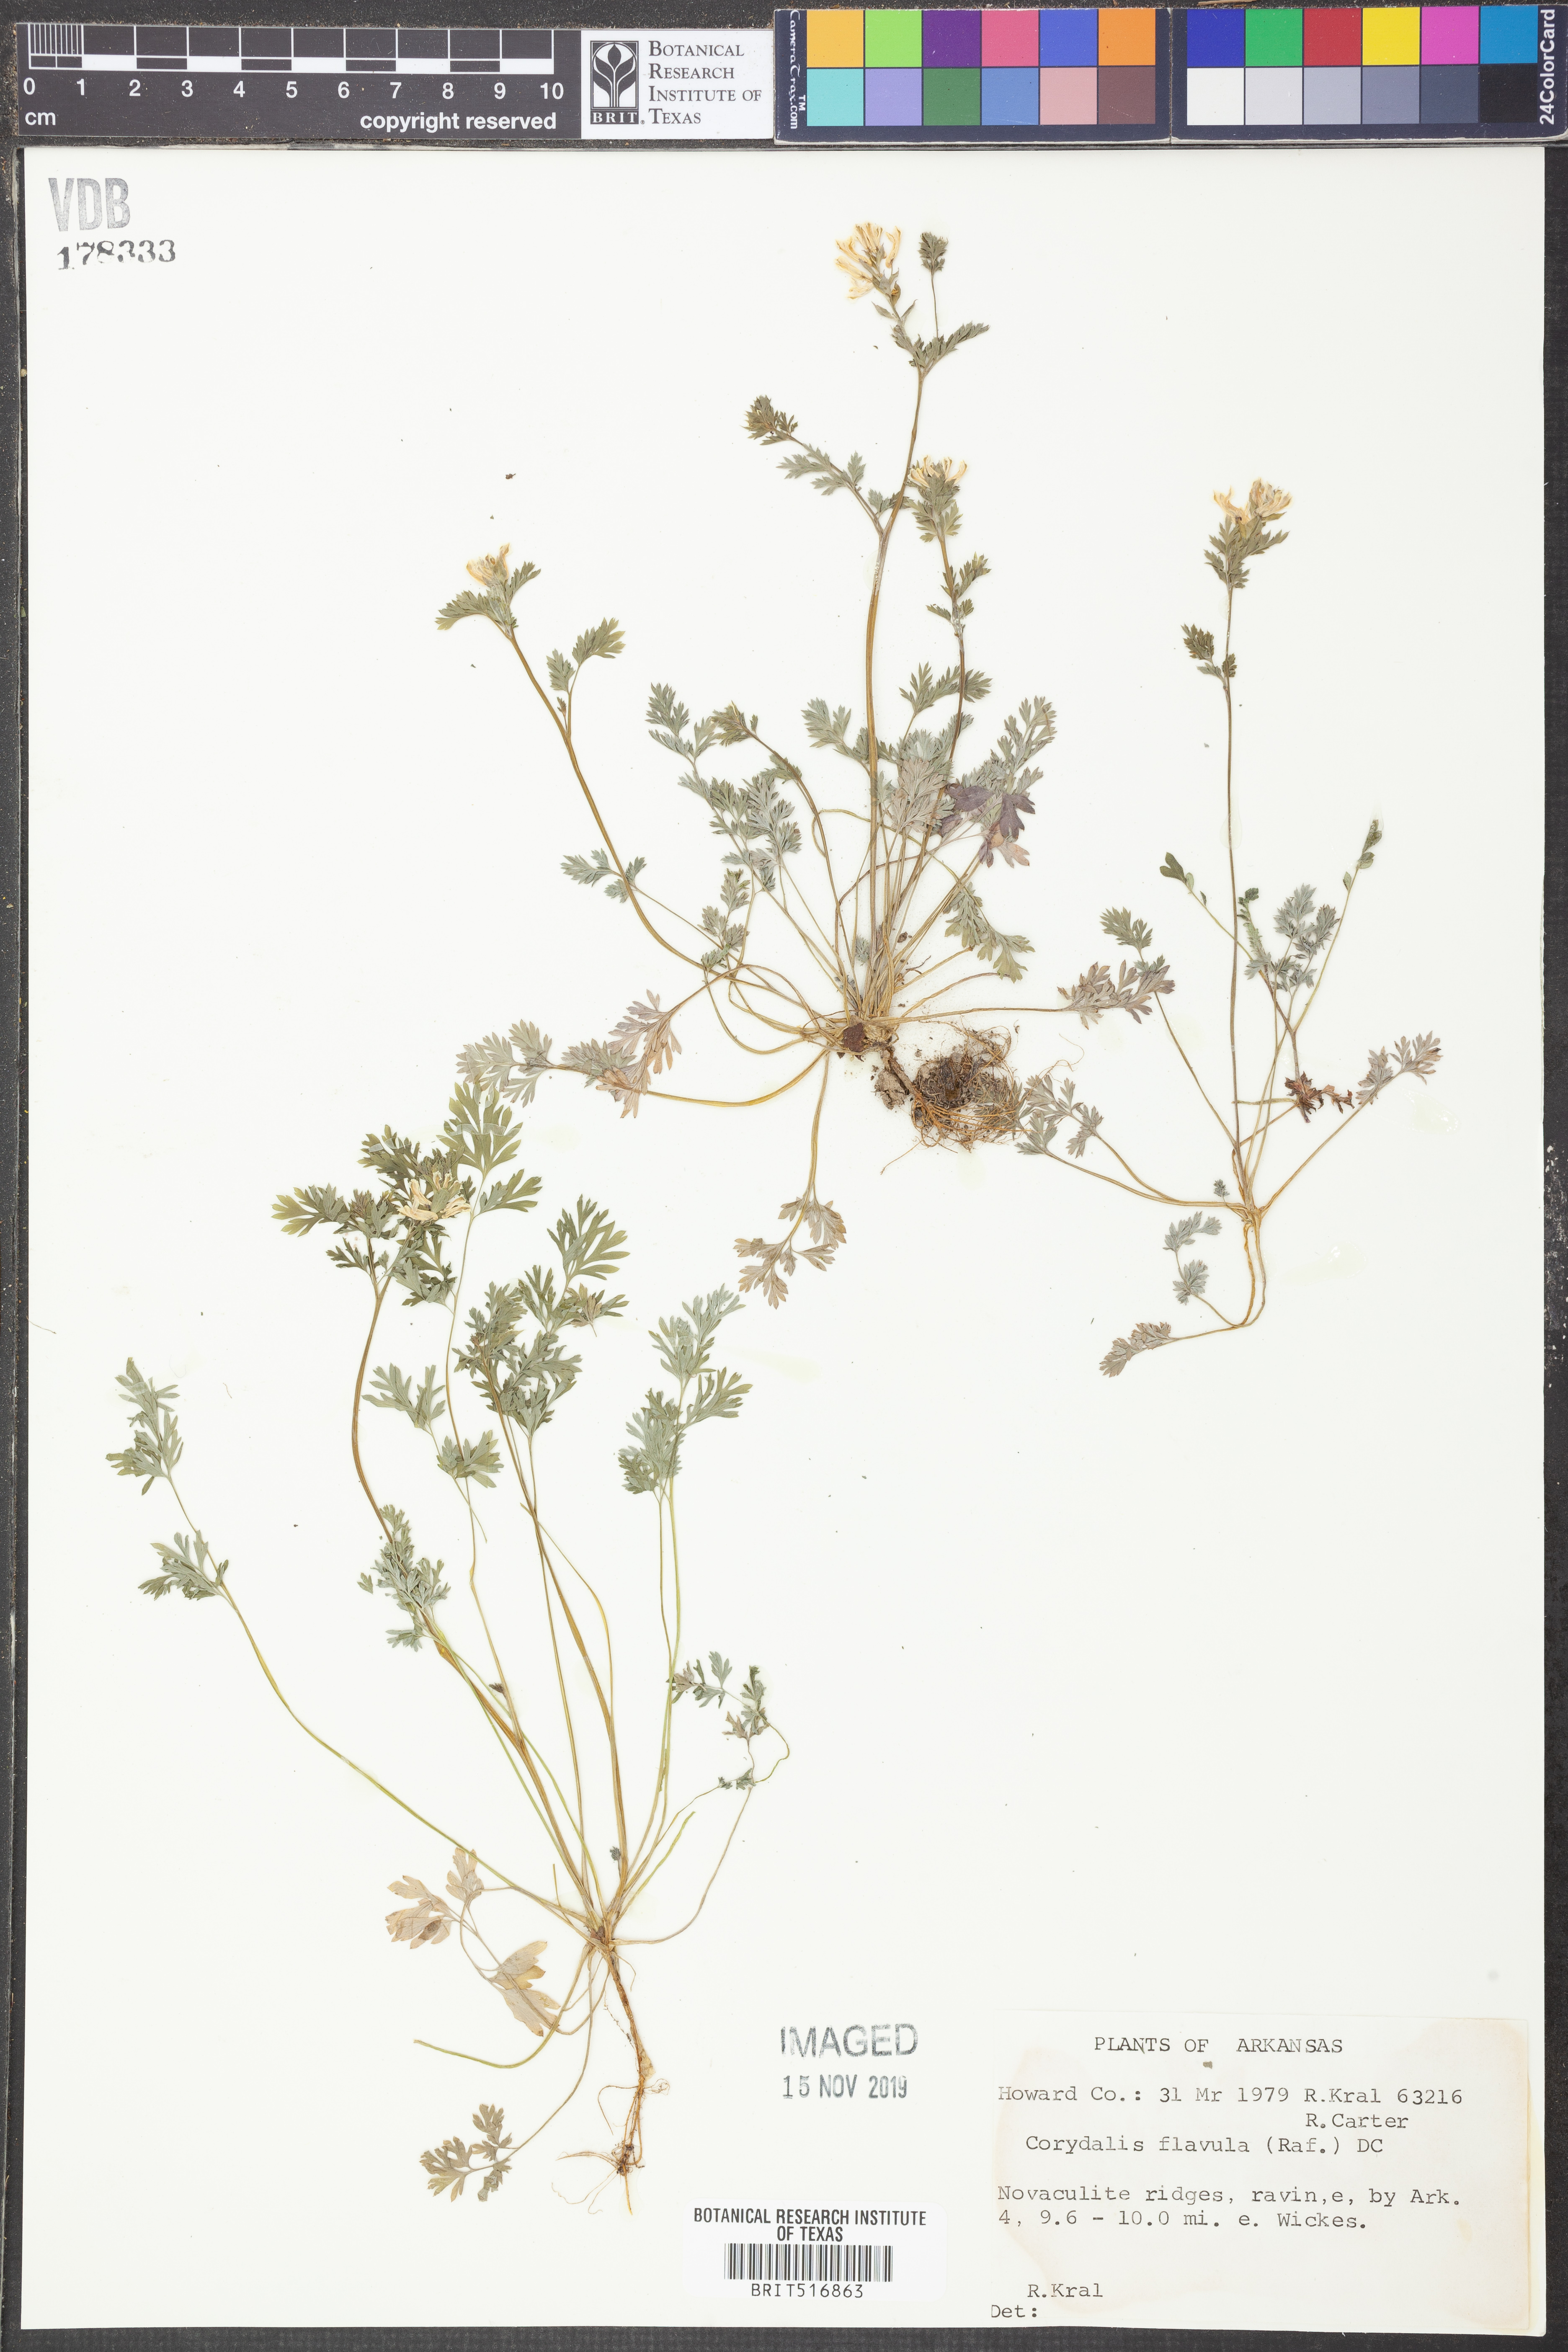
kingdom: Plantae
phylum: Tracheophyta
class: Magnoliopsida
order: Ranunculales
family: Papaveraceae
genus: Corydalis
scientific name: Corydalis flavula
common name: Yellow corydalis
